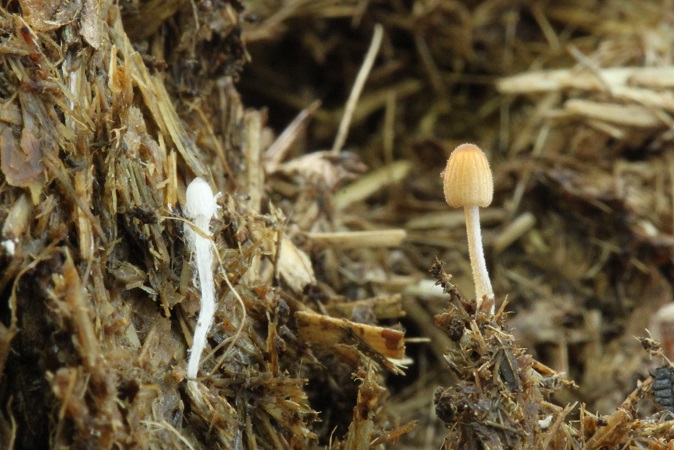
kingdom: Fungi
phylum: Basidiomycota
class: Agaricomycetes
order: Agaricales
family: Psathyrellaceae
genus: Tulosesus
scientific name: Tulosesus pellucidus
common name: skær blækhat
